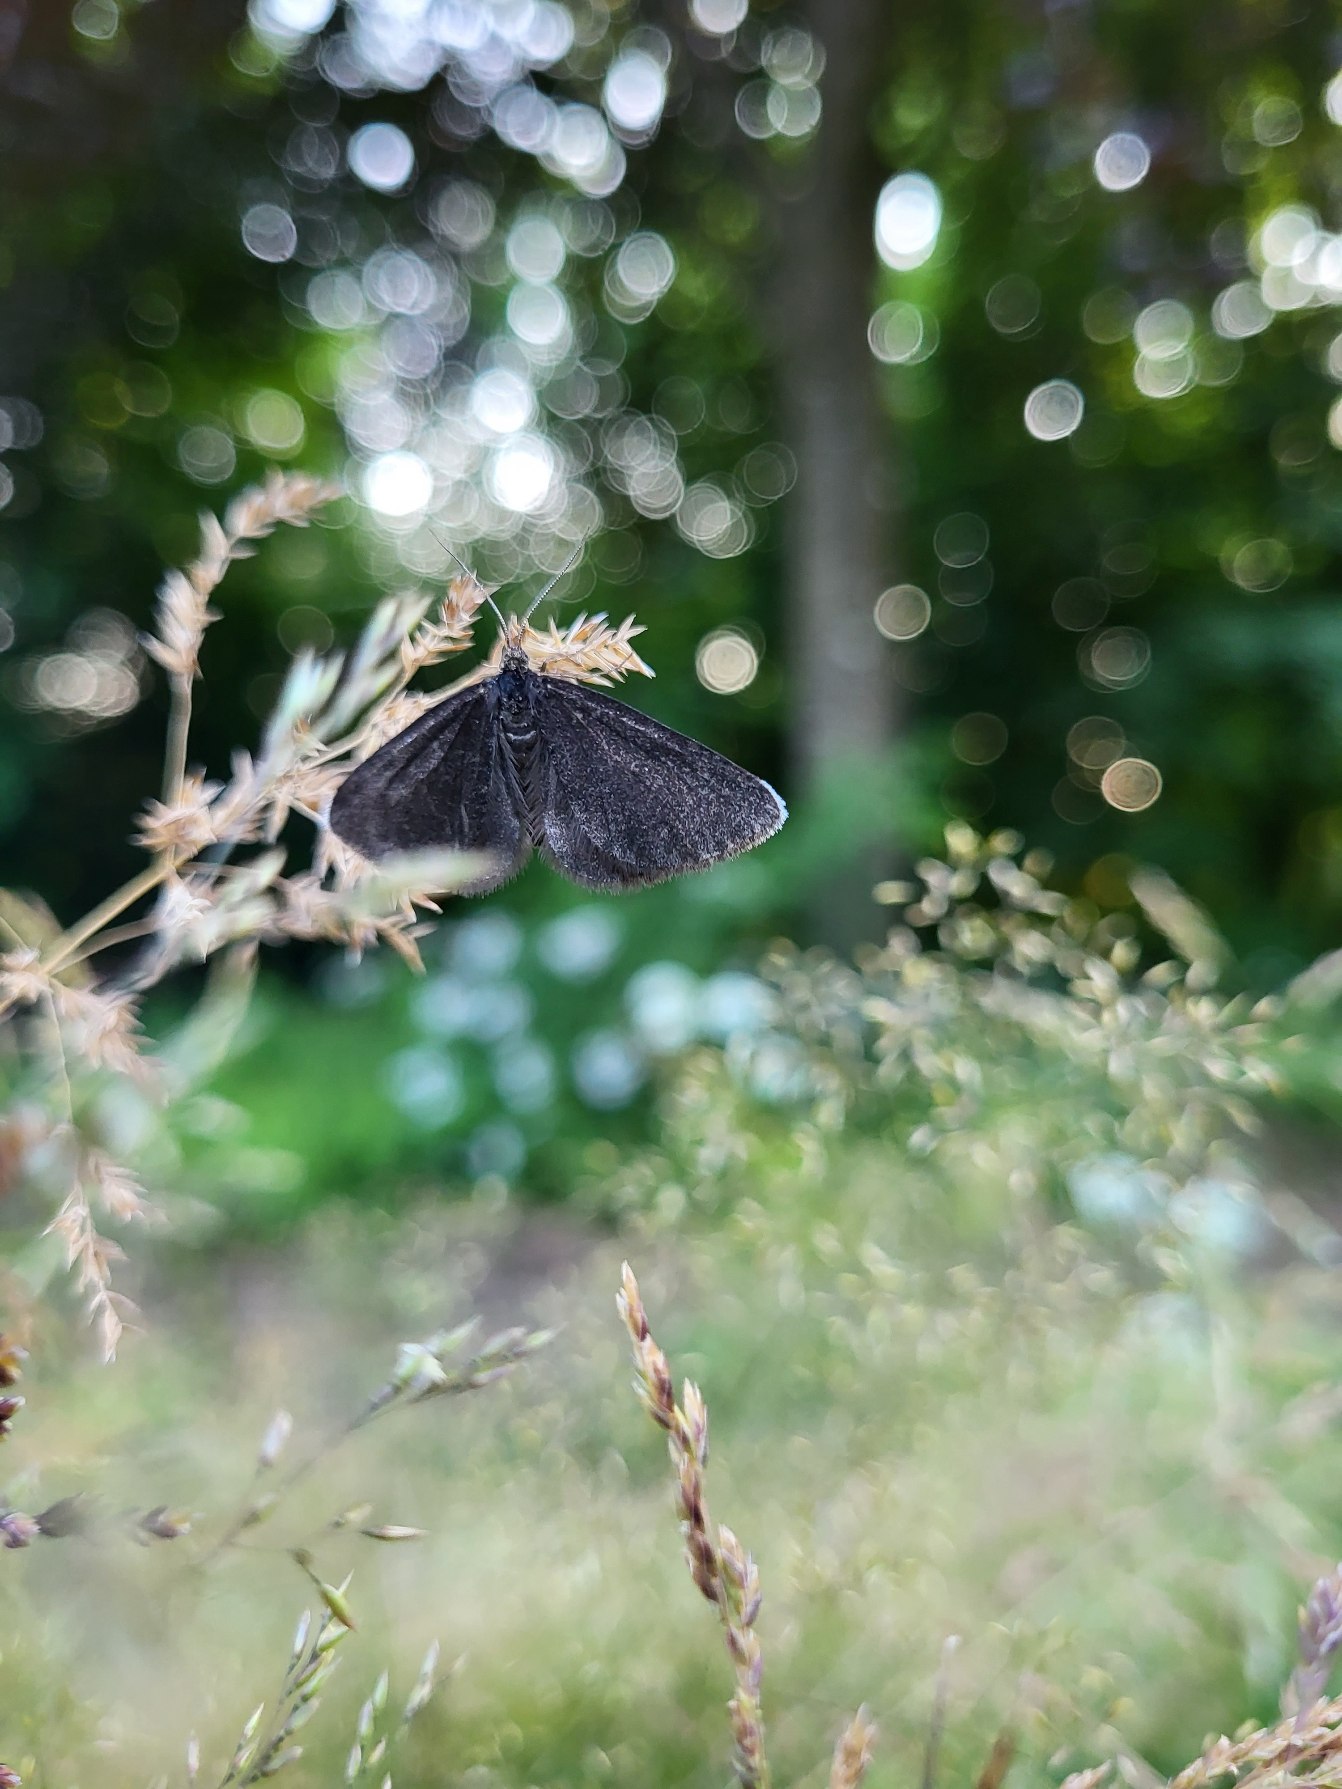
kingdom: Animalia
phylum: Arthropoda
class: Insecta
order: Lepidoptera
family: Geometridae
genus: Odezia
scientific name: Odezia atrata
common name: Sort måler
